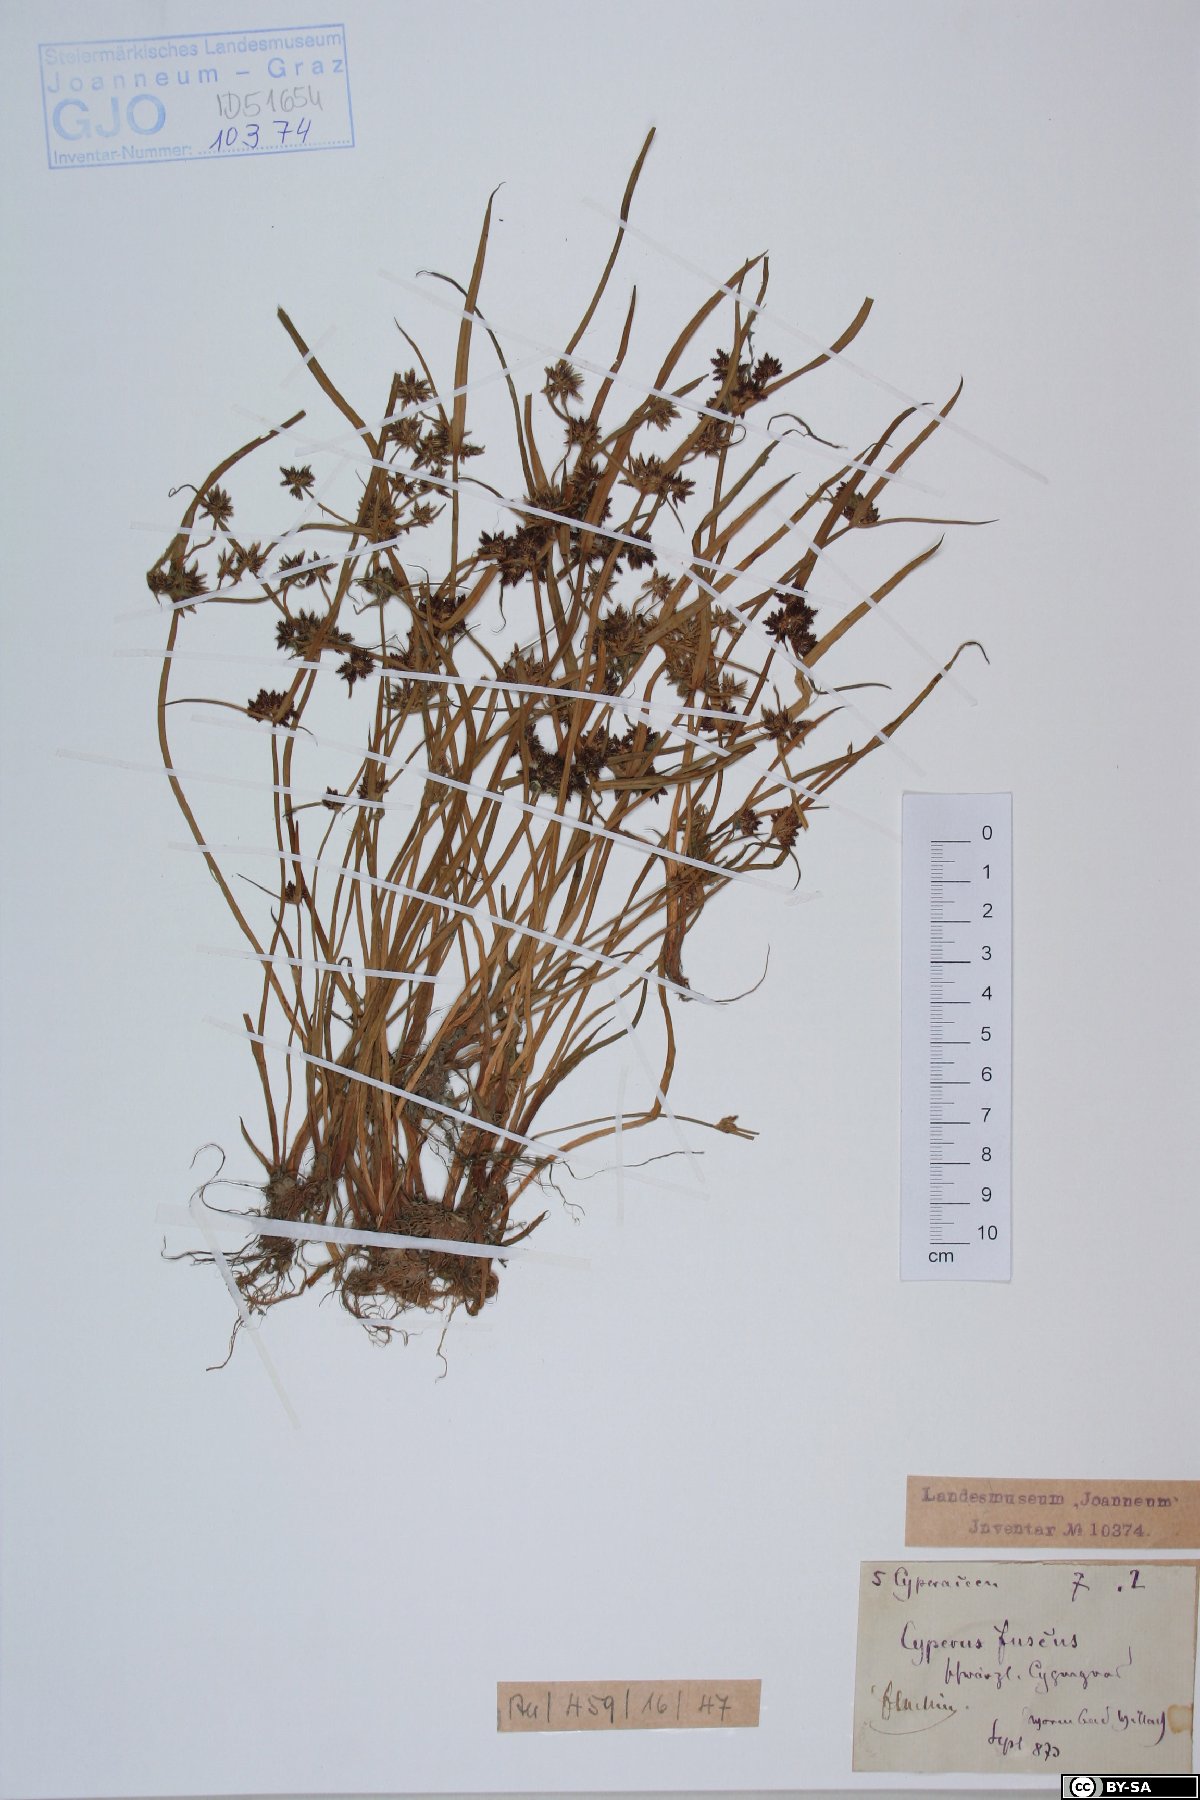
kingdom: Plantae
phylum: Tracheophyta
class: Liliopsida
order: Poales
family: Cyperaceae
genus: Cyperus
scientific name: Cyperus fuscus
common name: Brown galingale
